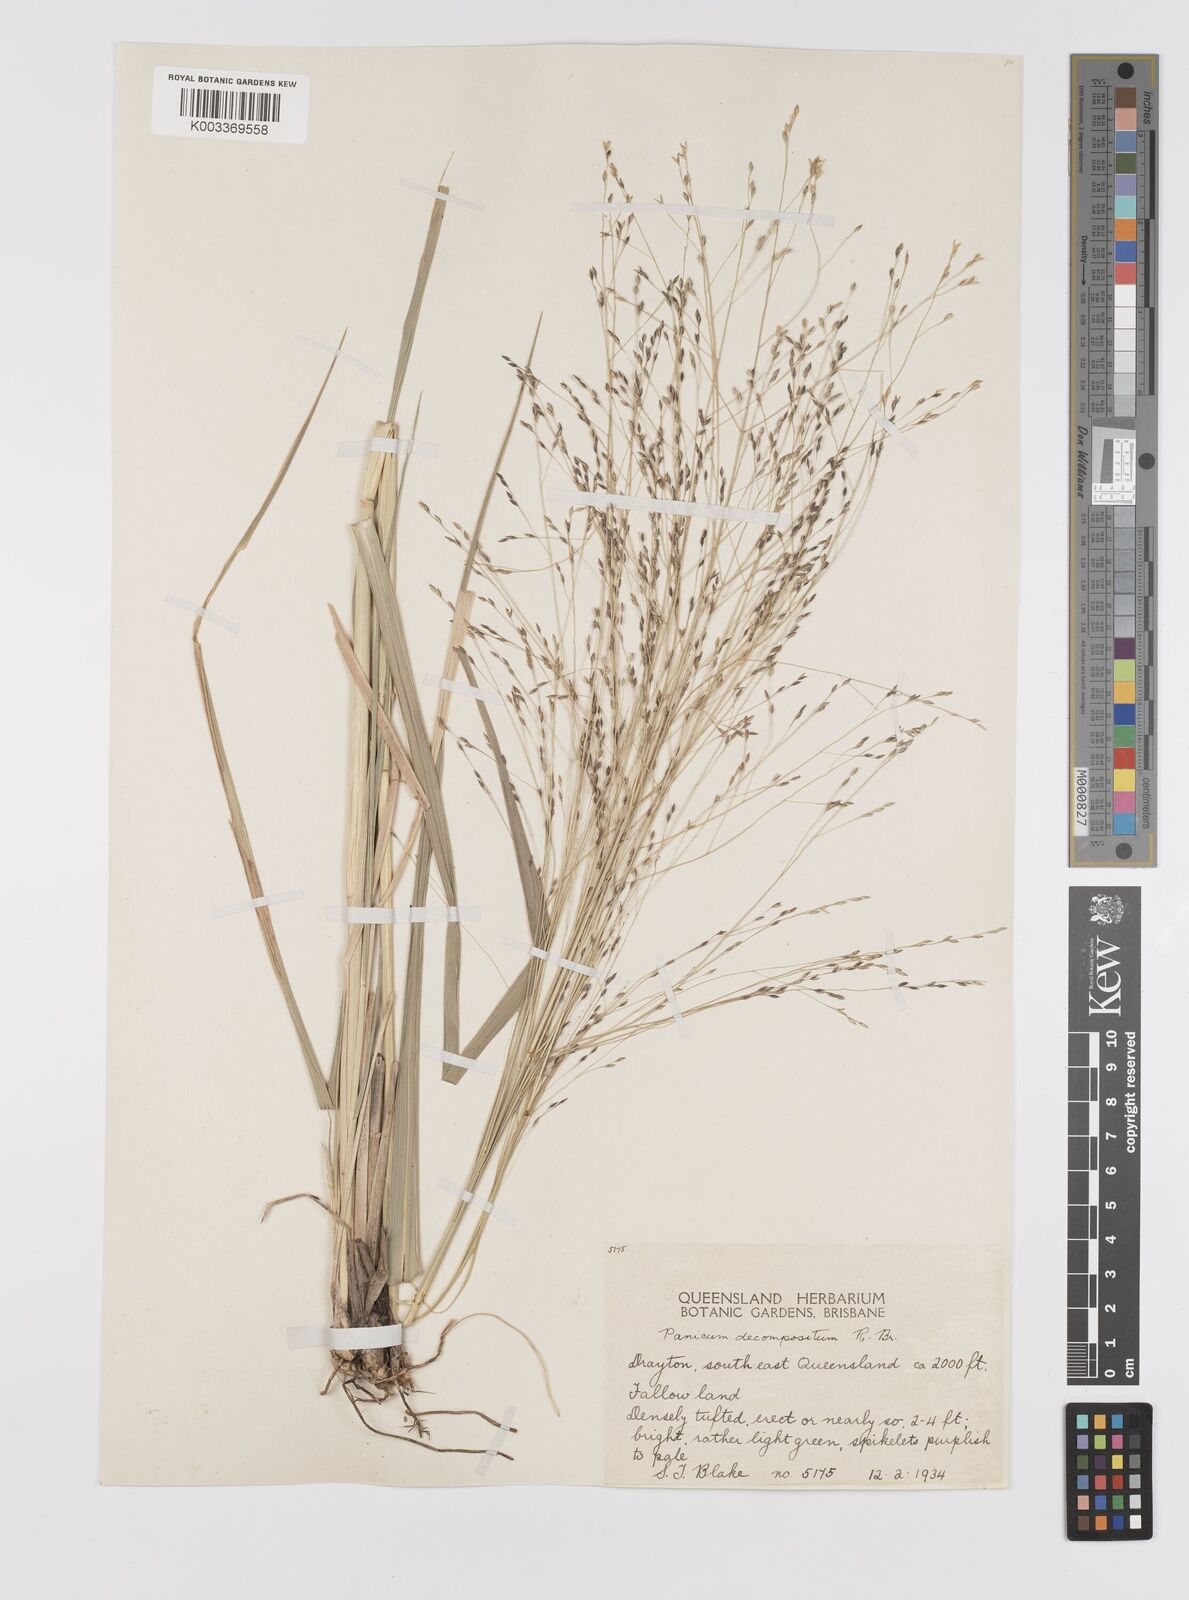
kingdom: Plantae
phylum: Tracheophyta
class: Liliopsida
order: Poales
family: Poaceae
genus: Panicum
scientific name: Panicum decompositum
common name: Australian millet
